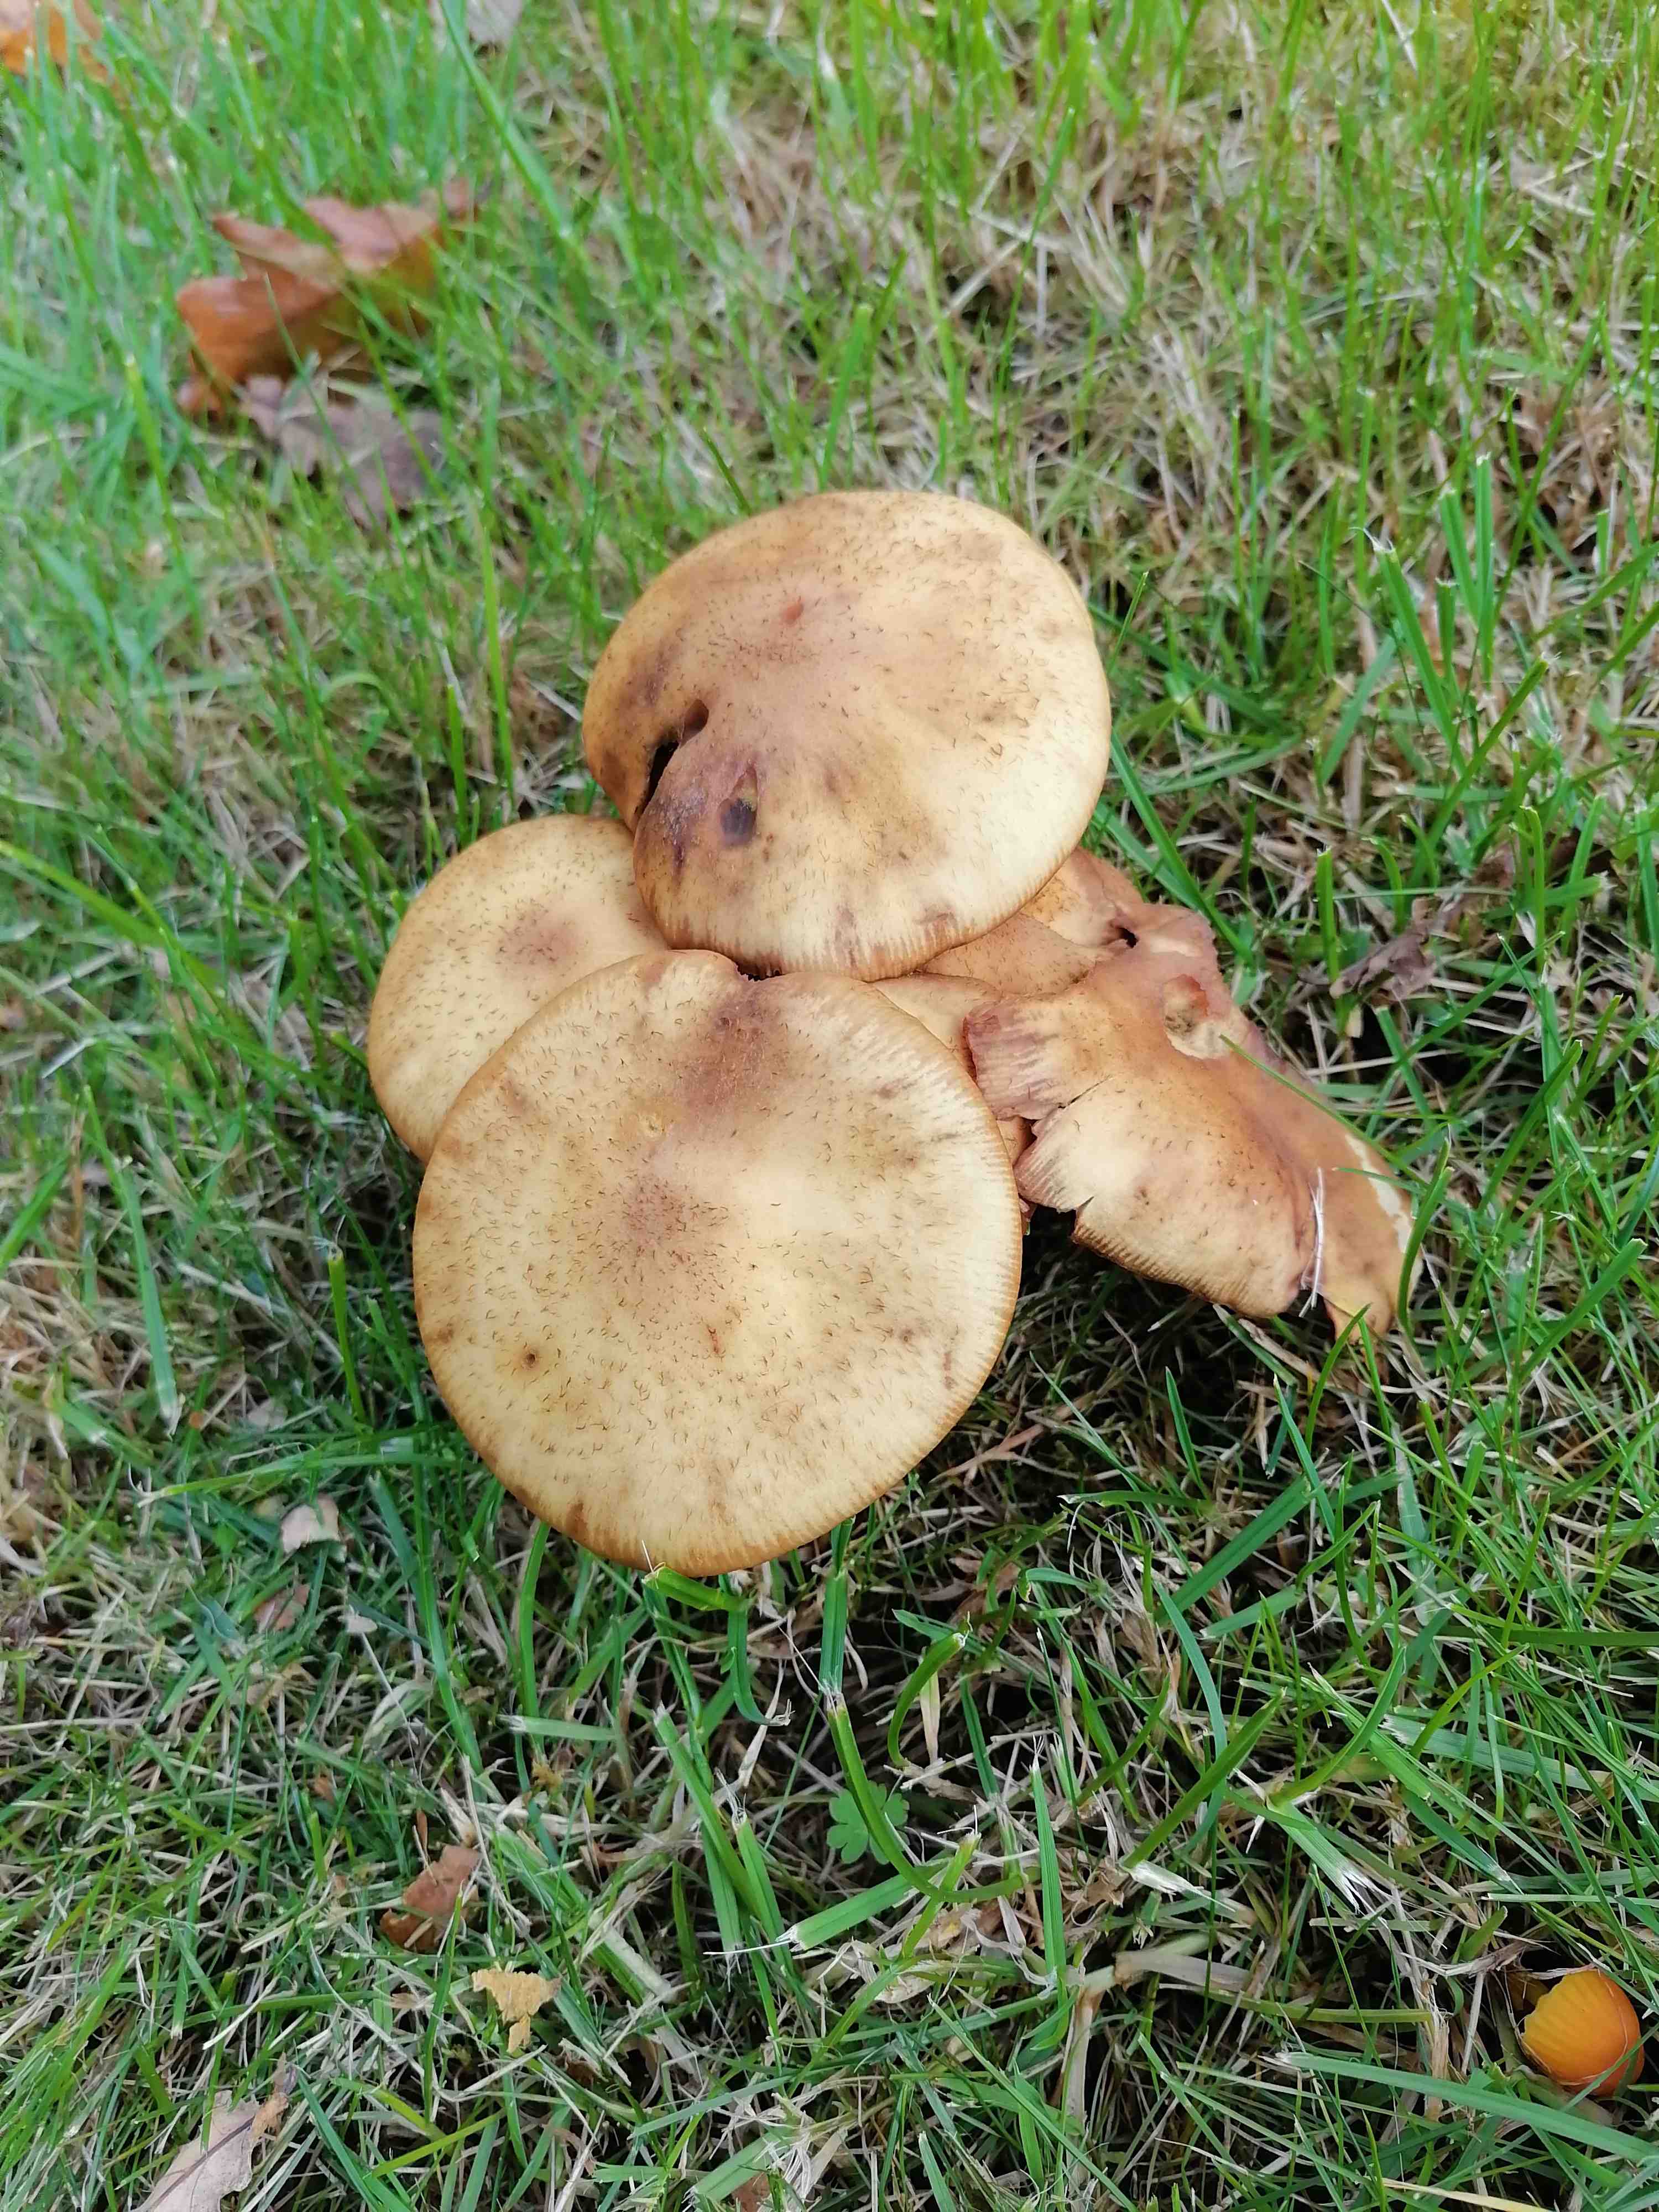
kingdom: Fungi
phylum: Basidiomycota
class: Agaricomycetes
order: Agaricales
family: Physalacriaceae
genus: Armillaria
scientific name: Armillaria
